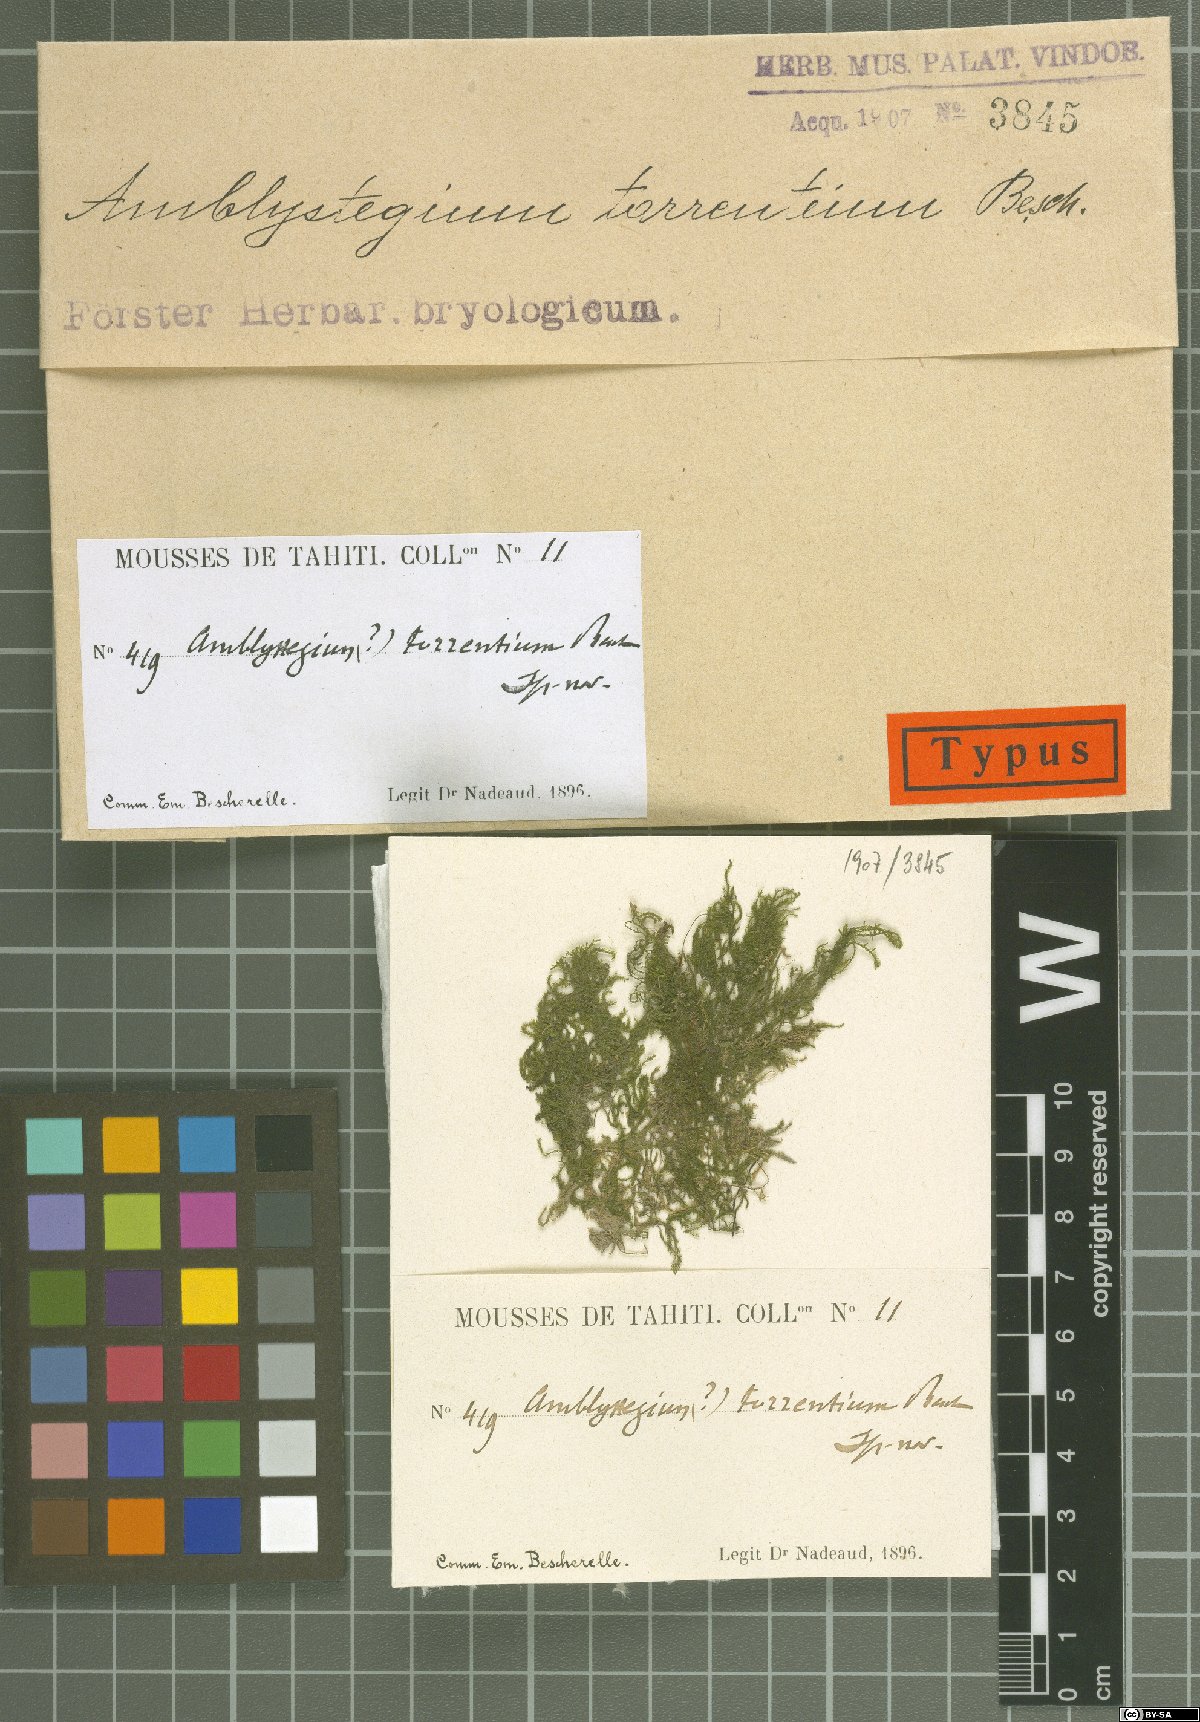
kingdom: Plantae
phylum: Bryophyta
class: Bryopsida
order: Hypnales
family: Symphyodontaceae
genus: Bryocrumia
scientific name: Bryocrumia torrentium
